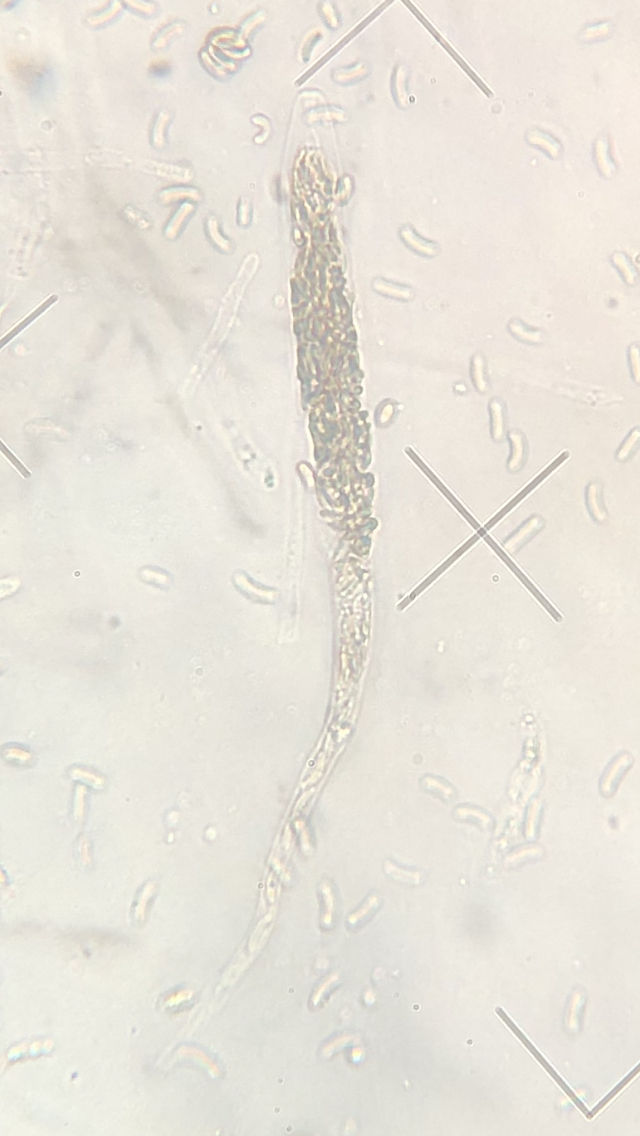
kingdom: Fungi
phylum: Ascomycota
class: Sordariomycetes
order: Xylariales
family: Diatrypaceae
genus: Diatrypella
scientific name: Diatrypella favacea
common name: klemt kulskorpe
